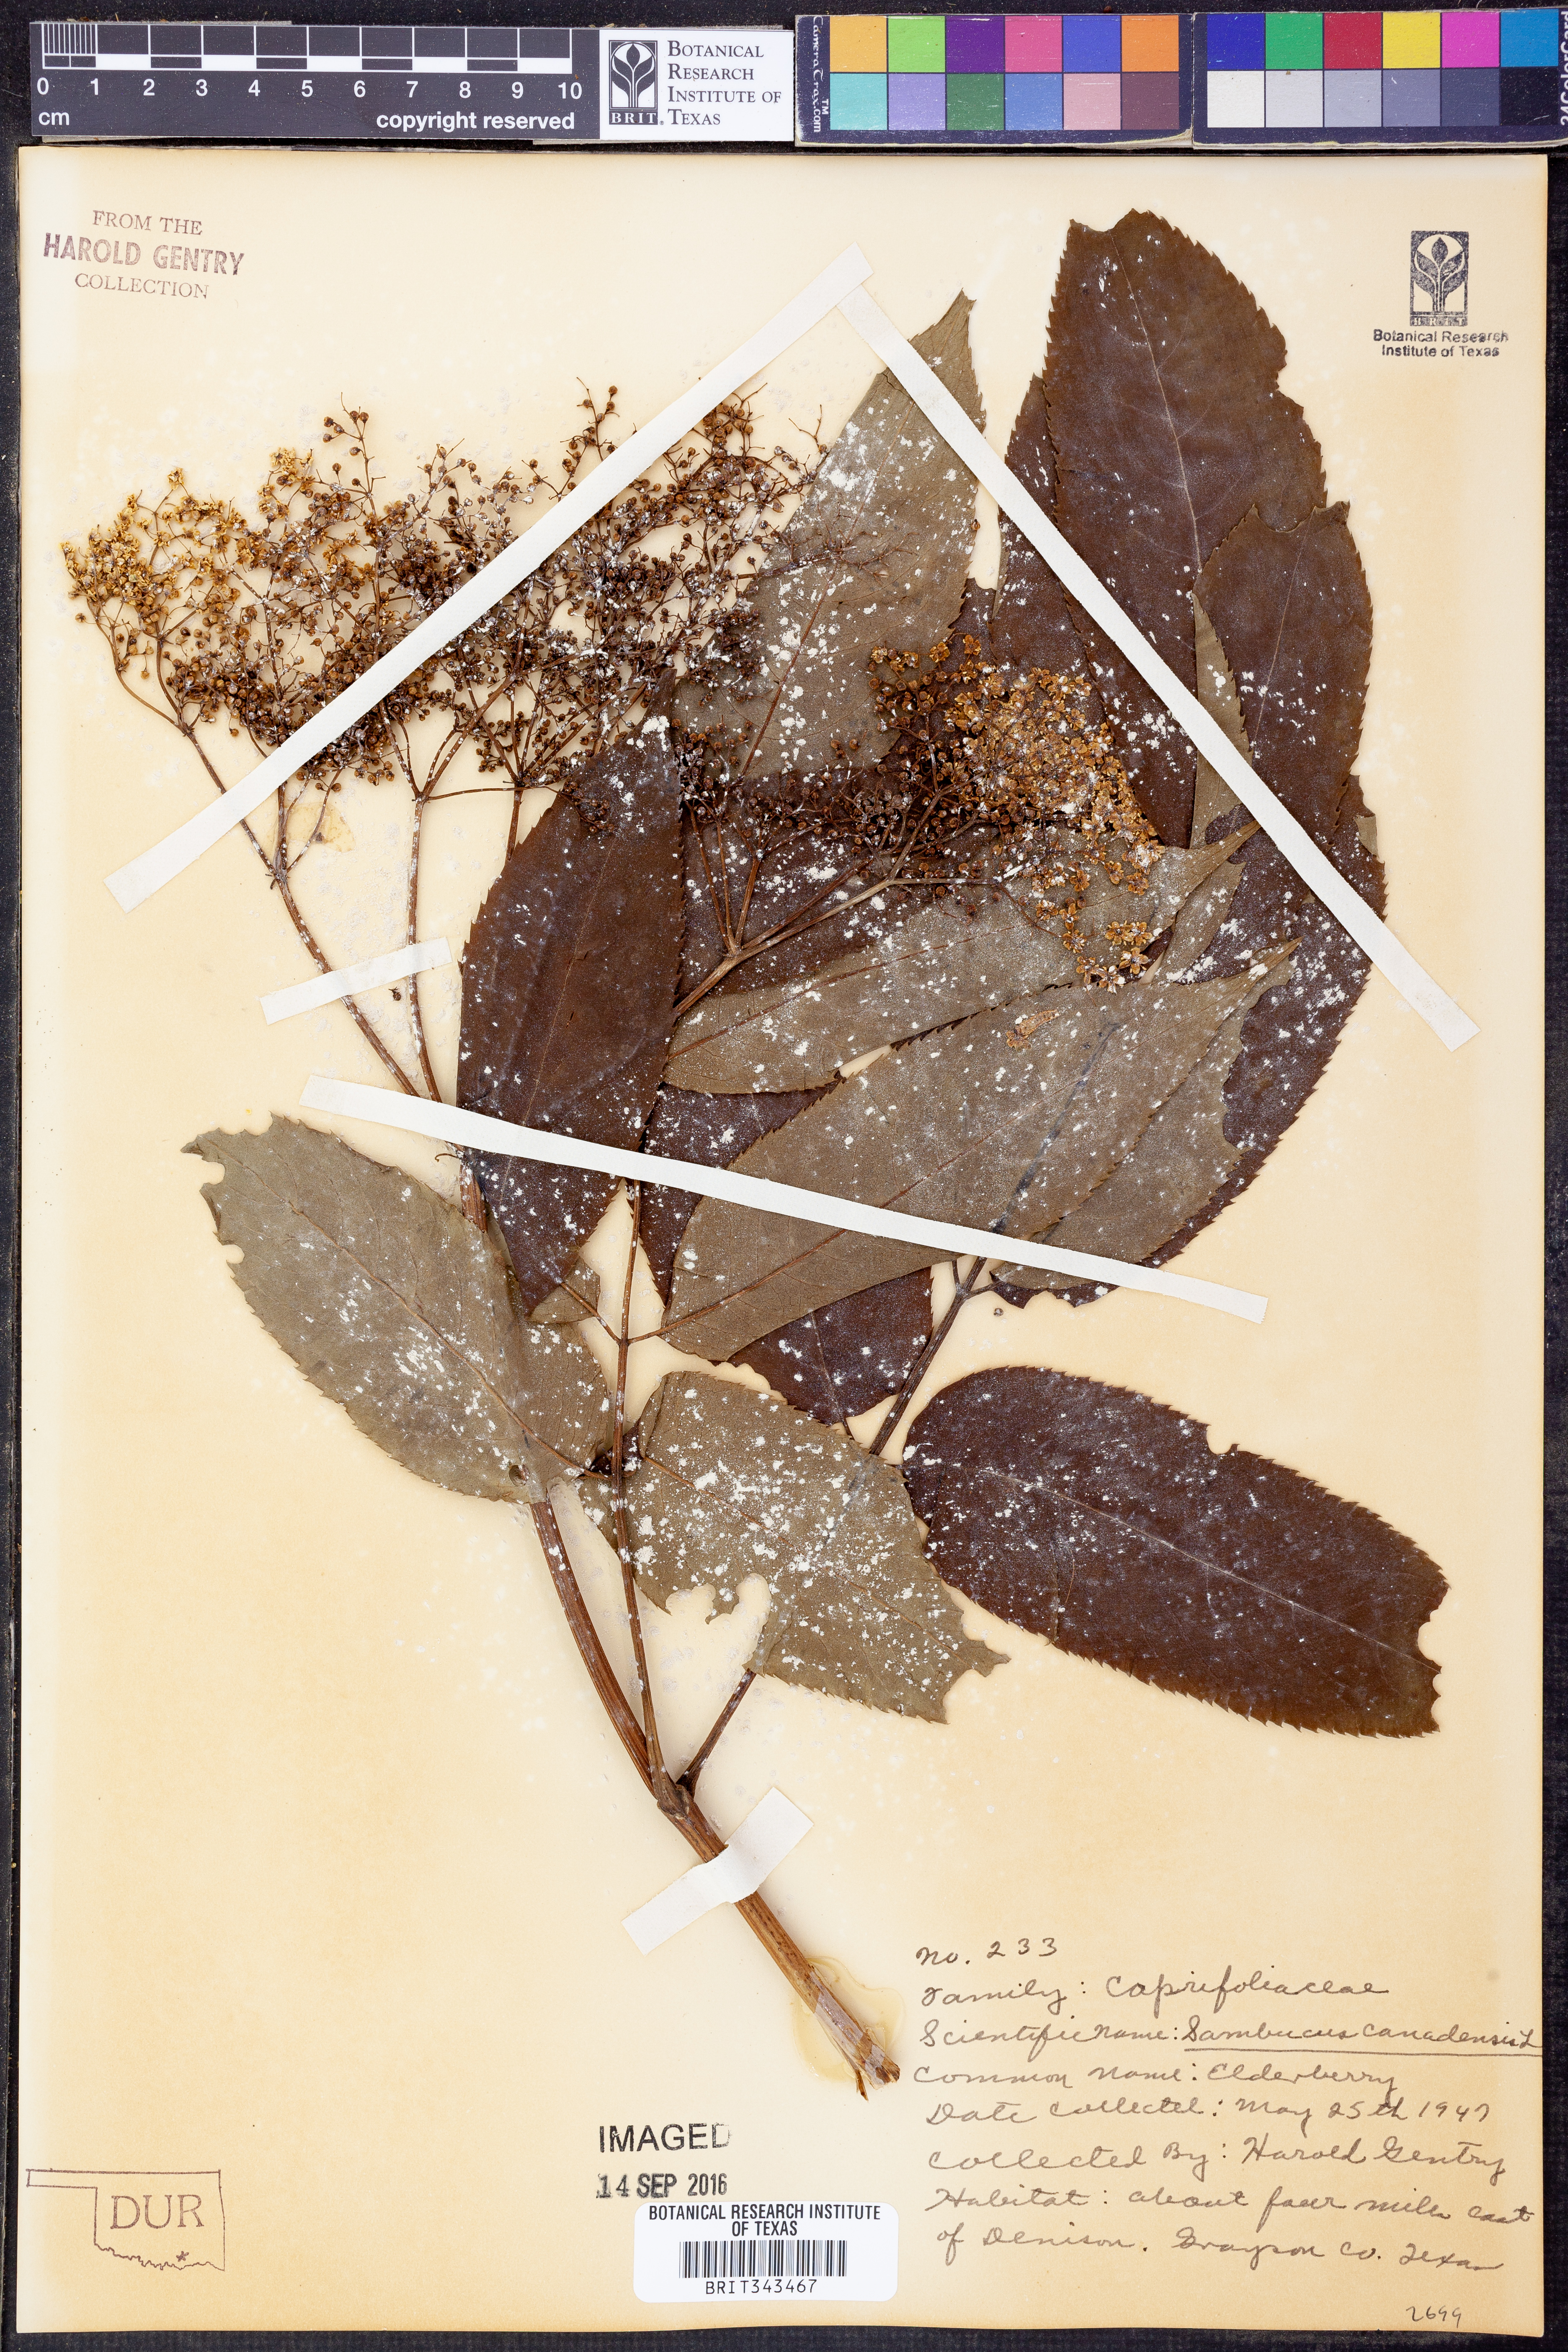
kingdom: Plantae
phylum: Tracheophyta
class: Magnoliopsida
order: Dipsacales
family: Viburnaceae
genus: Sambucus
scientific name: Sambucus canadensis
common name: American elder
